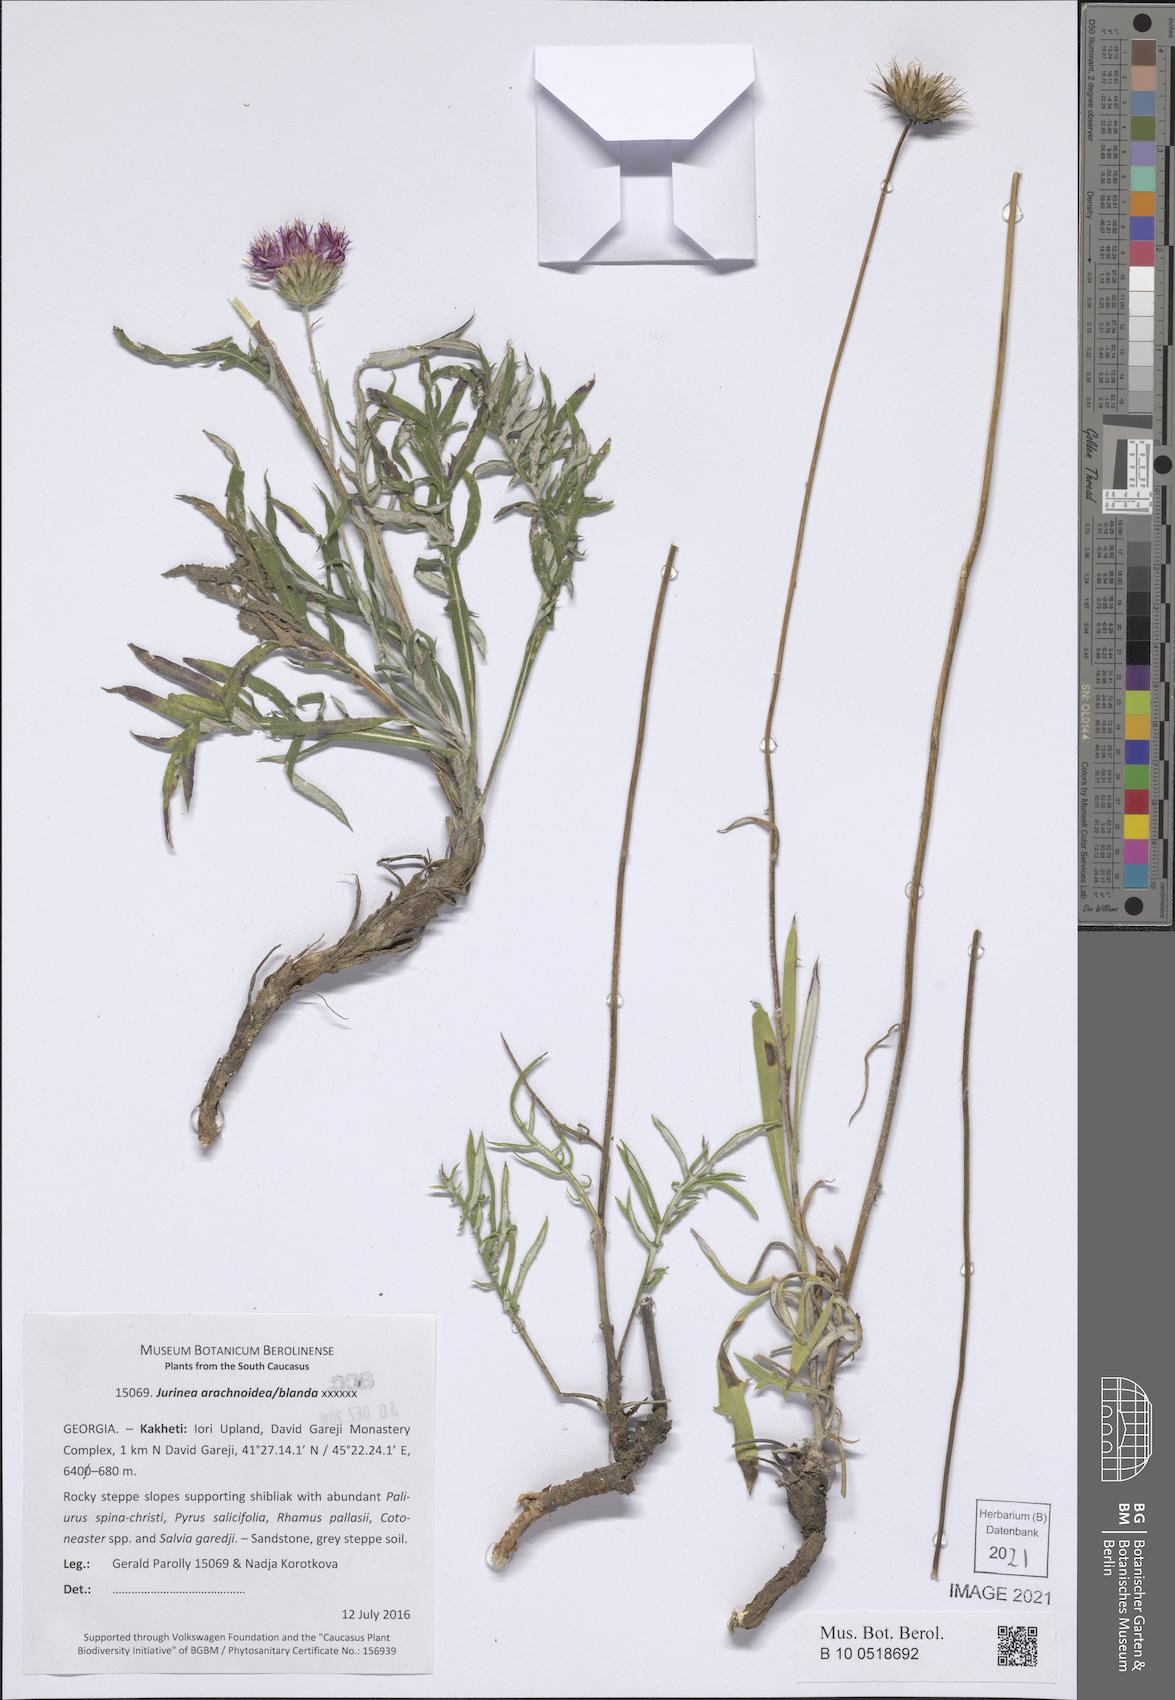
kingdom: Plantae
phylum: Tracheophyta
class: Magnoliopsida
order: Asterales
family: Asteraceae
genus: Jurinea
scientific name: Jurinea arachnoidea
